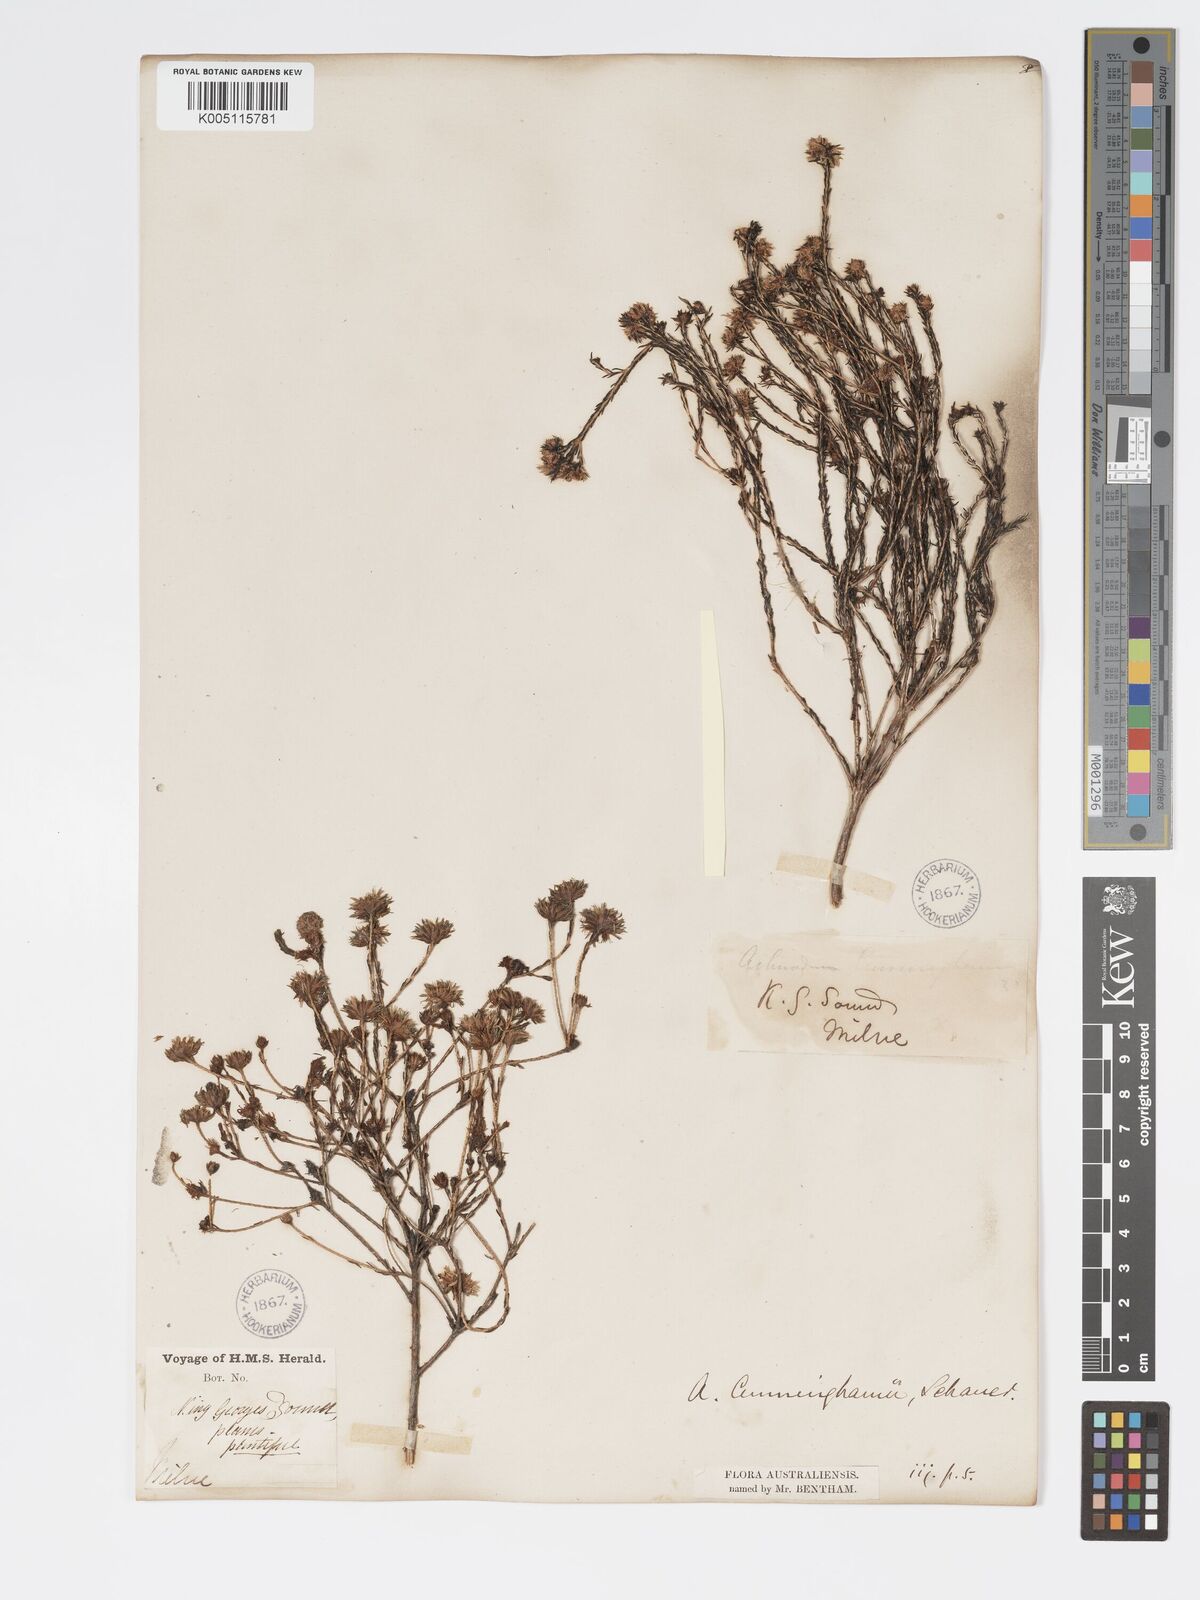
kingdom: Plantae
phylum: Tracheophyta
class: Magnoliopsida
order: Myrtales
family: Myrtaceae
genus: Actinodium
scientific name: Actinodium cunninghamii
